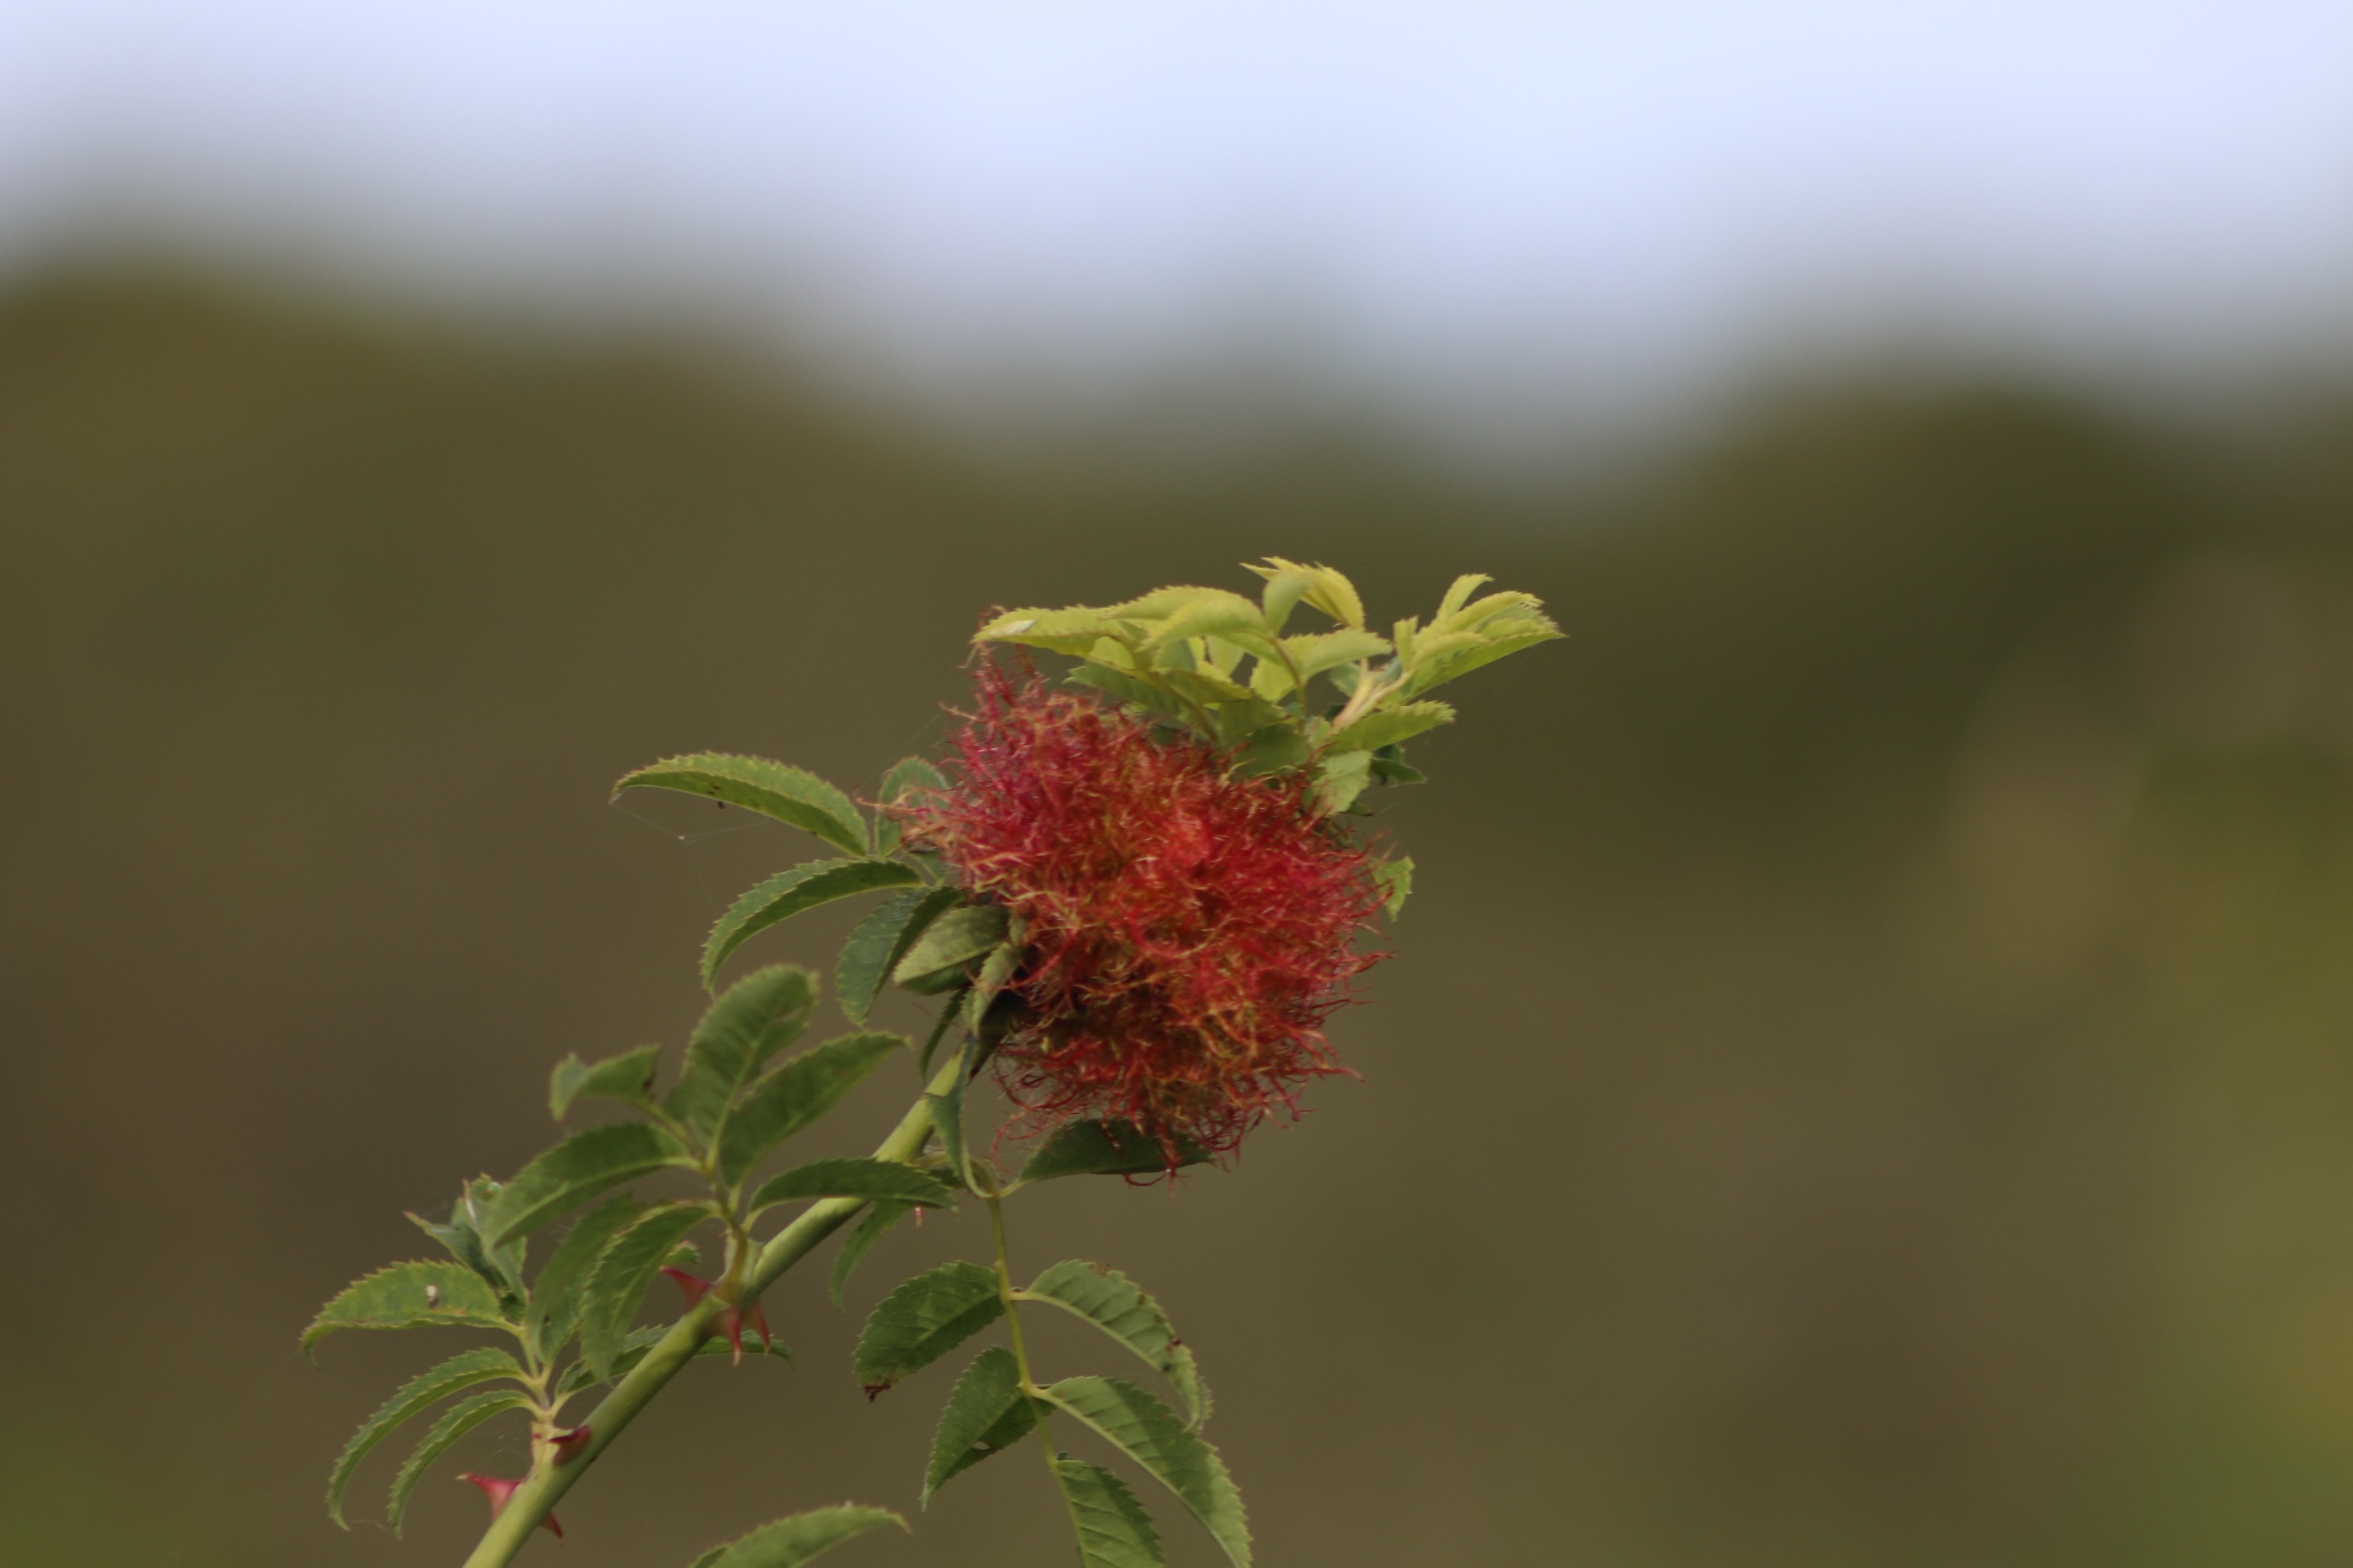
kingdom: Animalia
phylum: Arthropoda
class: Insecta
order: Hymenoptera
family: Cynipidae
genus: Diplolepis
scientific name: Diplolepis rosae
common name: Bedeguargalhveps
